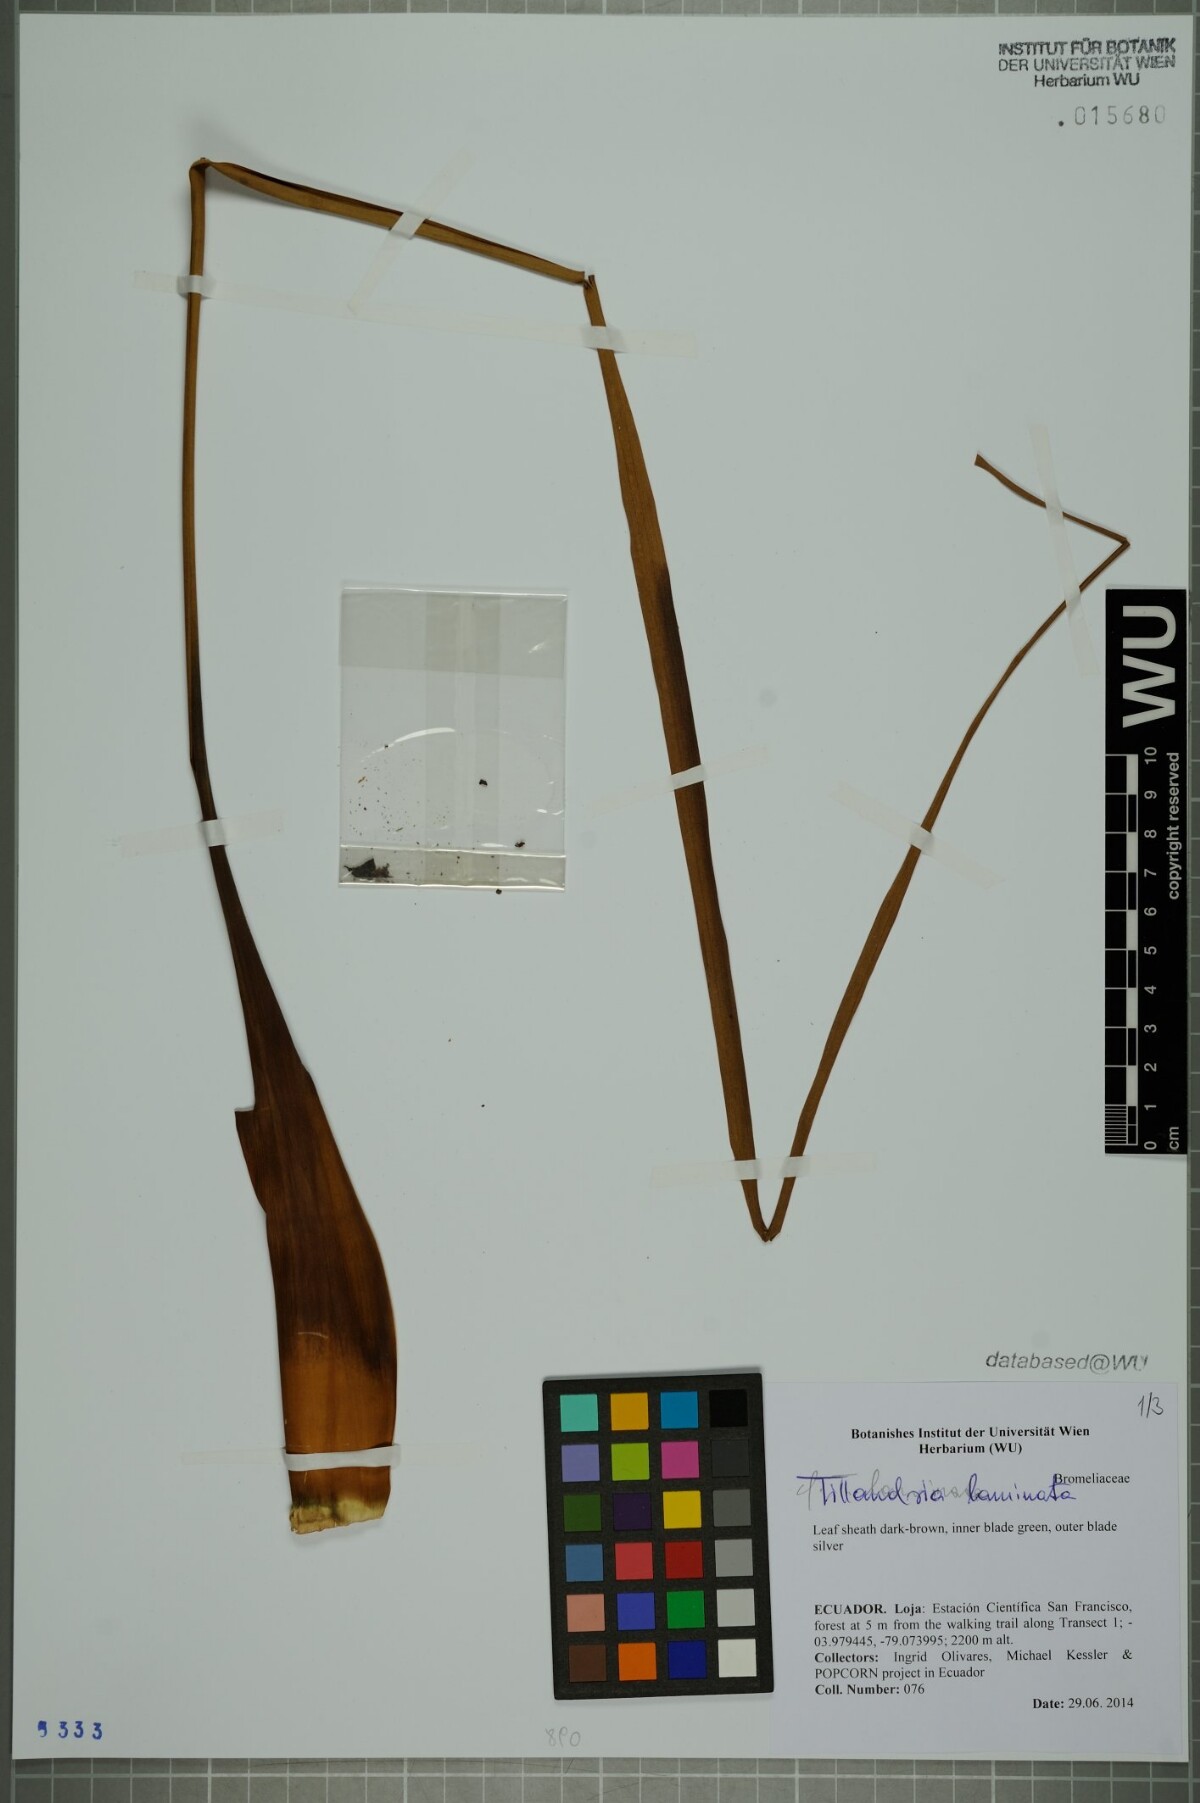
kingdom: Plantae
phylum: Tracheophyta
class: Liliopsida
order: Poales
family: Bromeliaceae
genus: Racinaea
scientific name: Racinaea laminata
